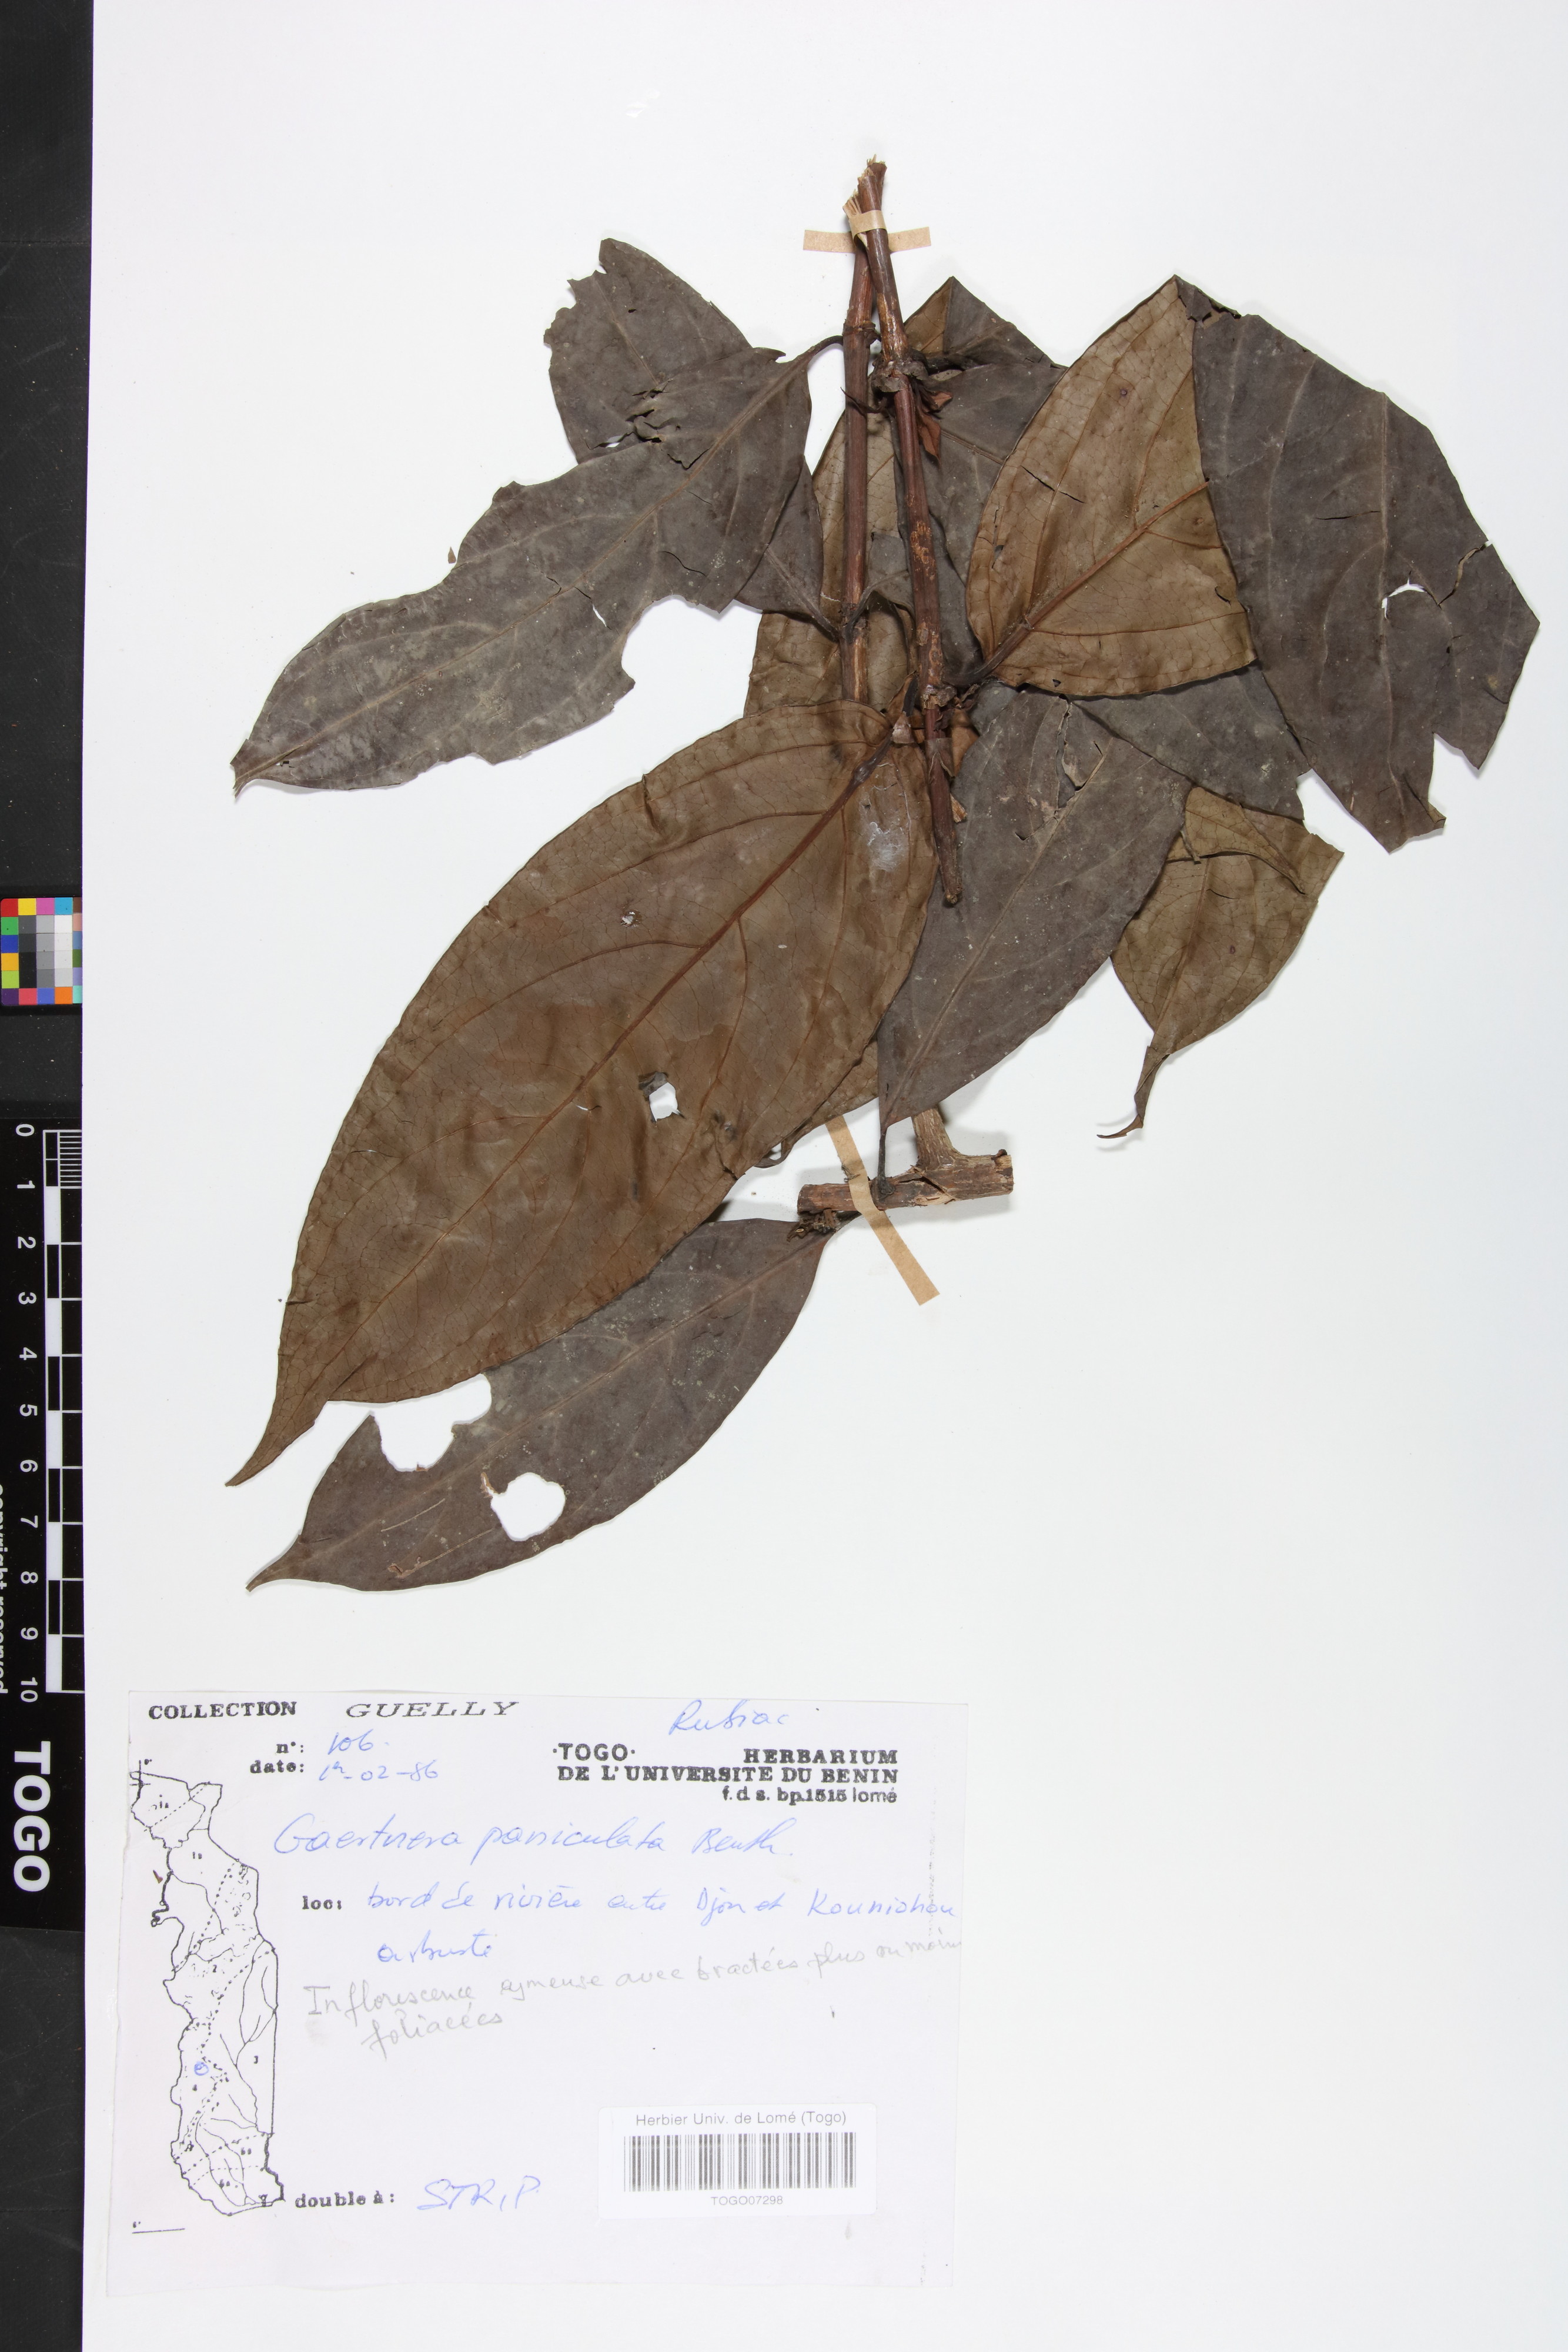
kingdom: Plantae
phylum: Tracheophyta
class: Magnoliopsida
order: Gentianales
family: Rubiaceae
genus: Gaertnera
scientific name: Gaertnera paniculata
